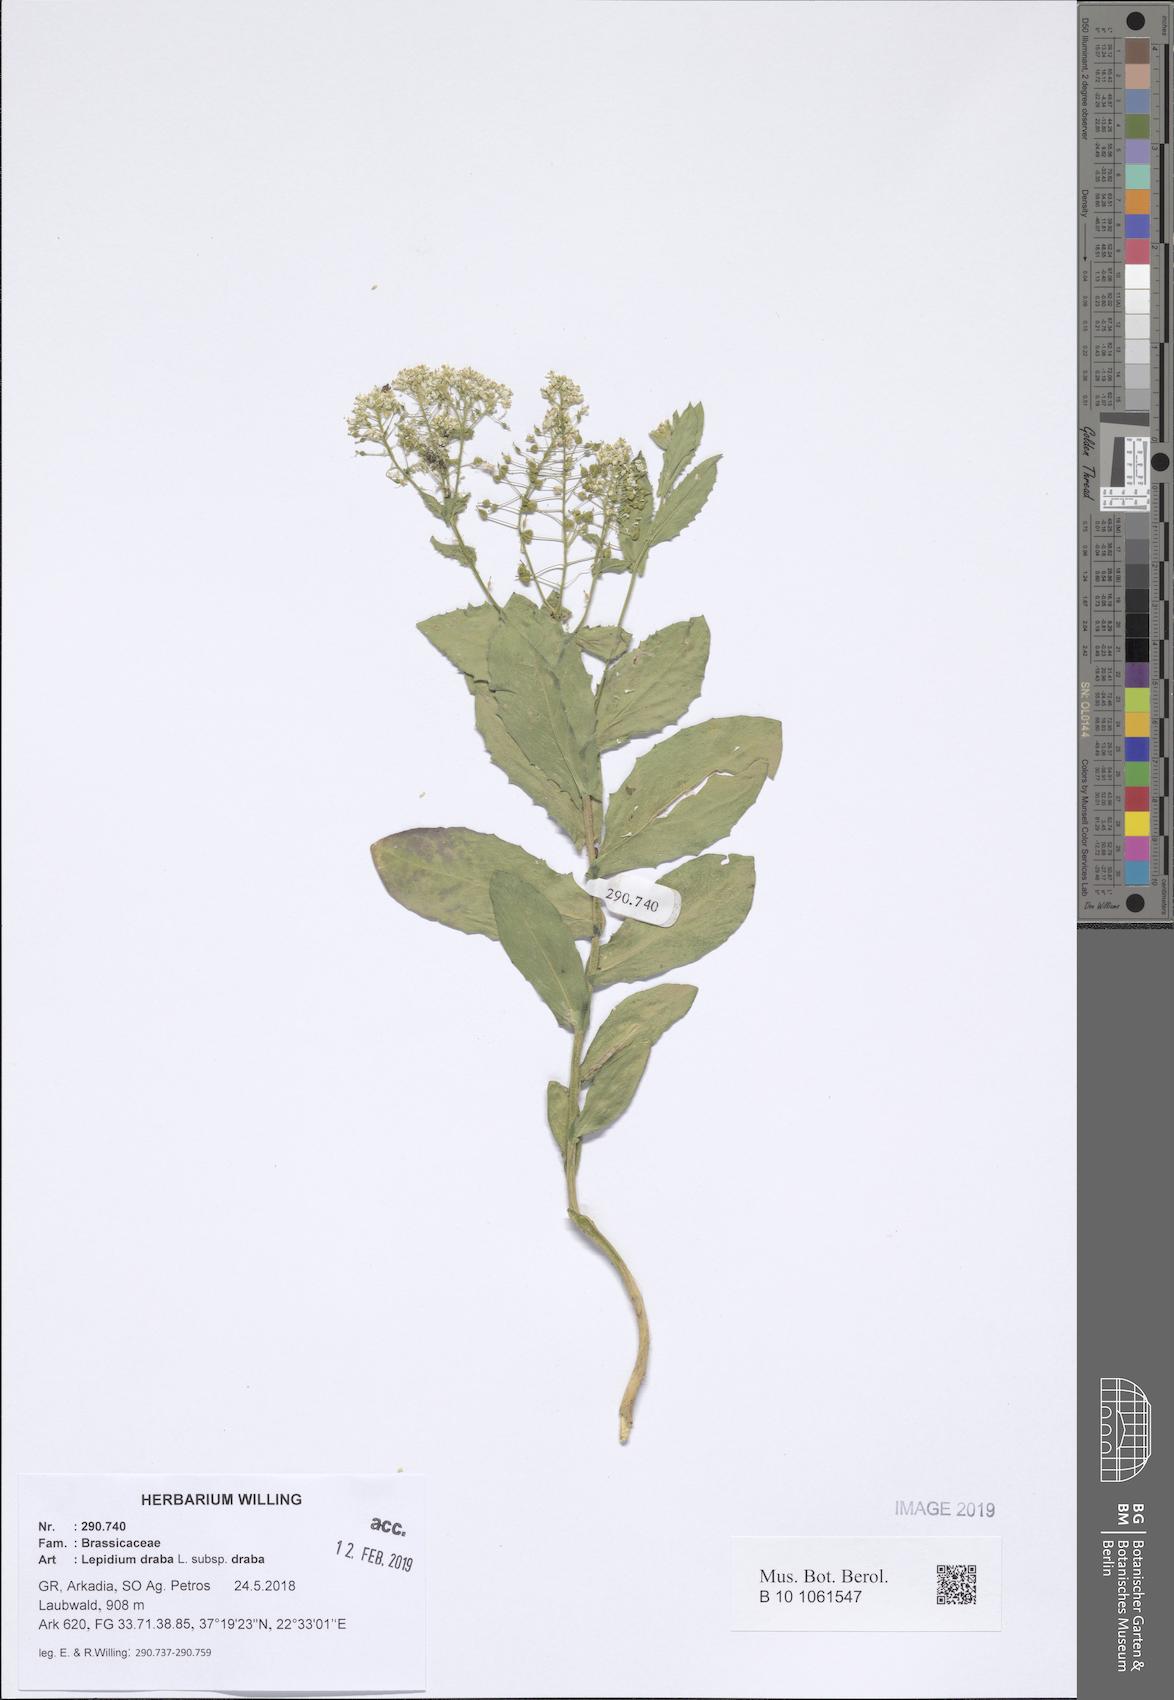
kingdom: Plantae
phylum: Tracheophyta
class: Magnoliopsida
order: Brassicales
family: Brassicaceae
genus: Lepidium
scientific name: Lepidium draba
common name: Hoary cress
